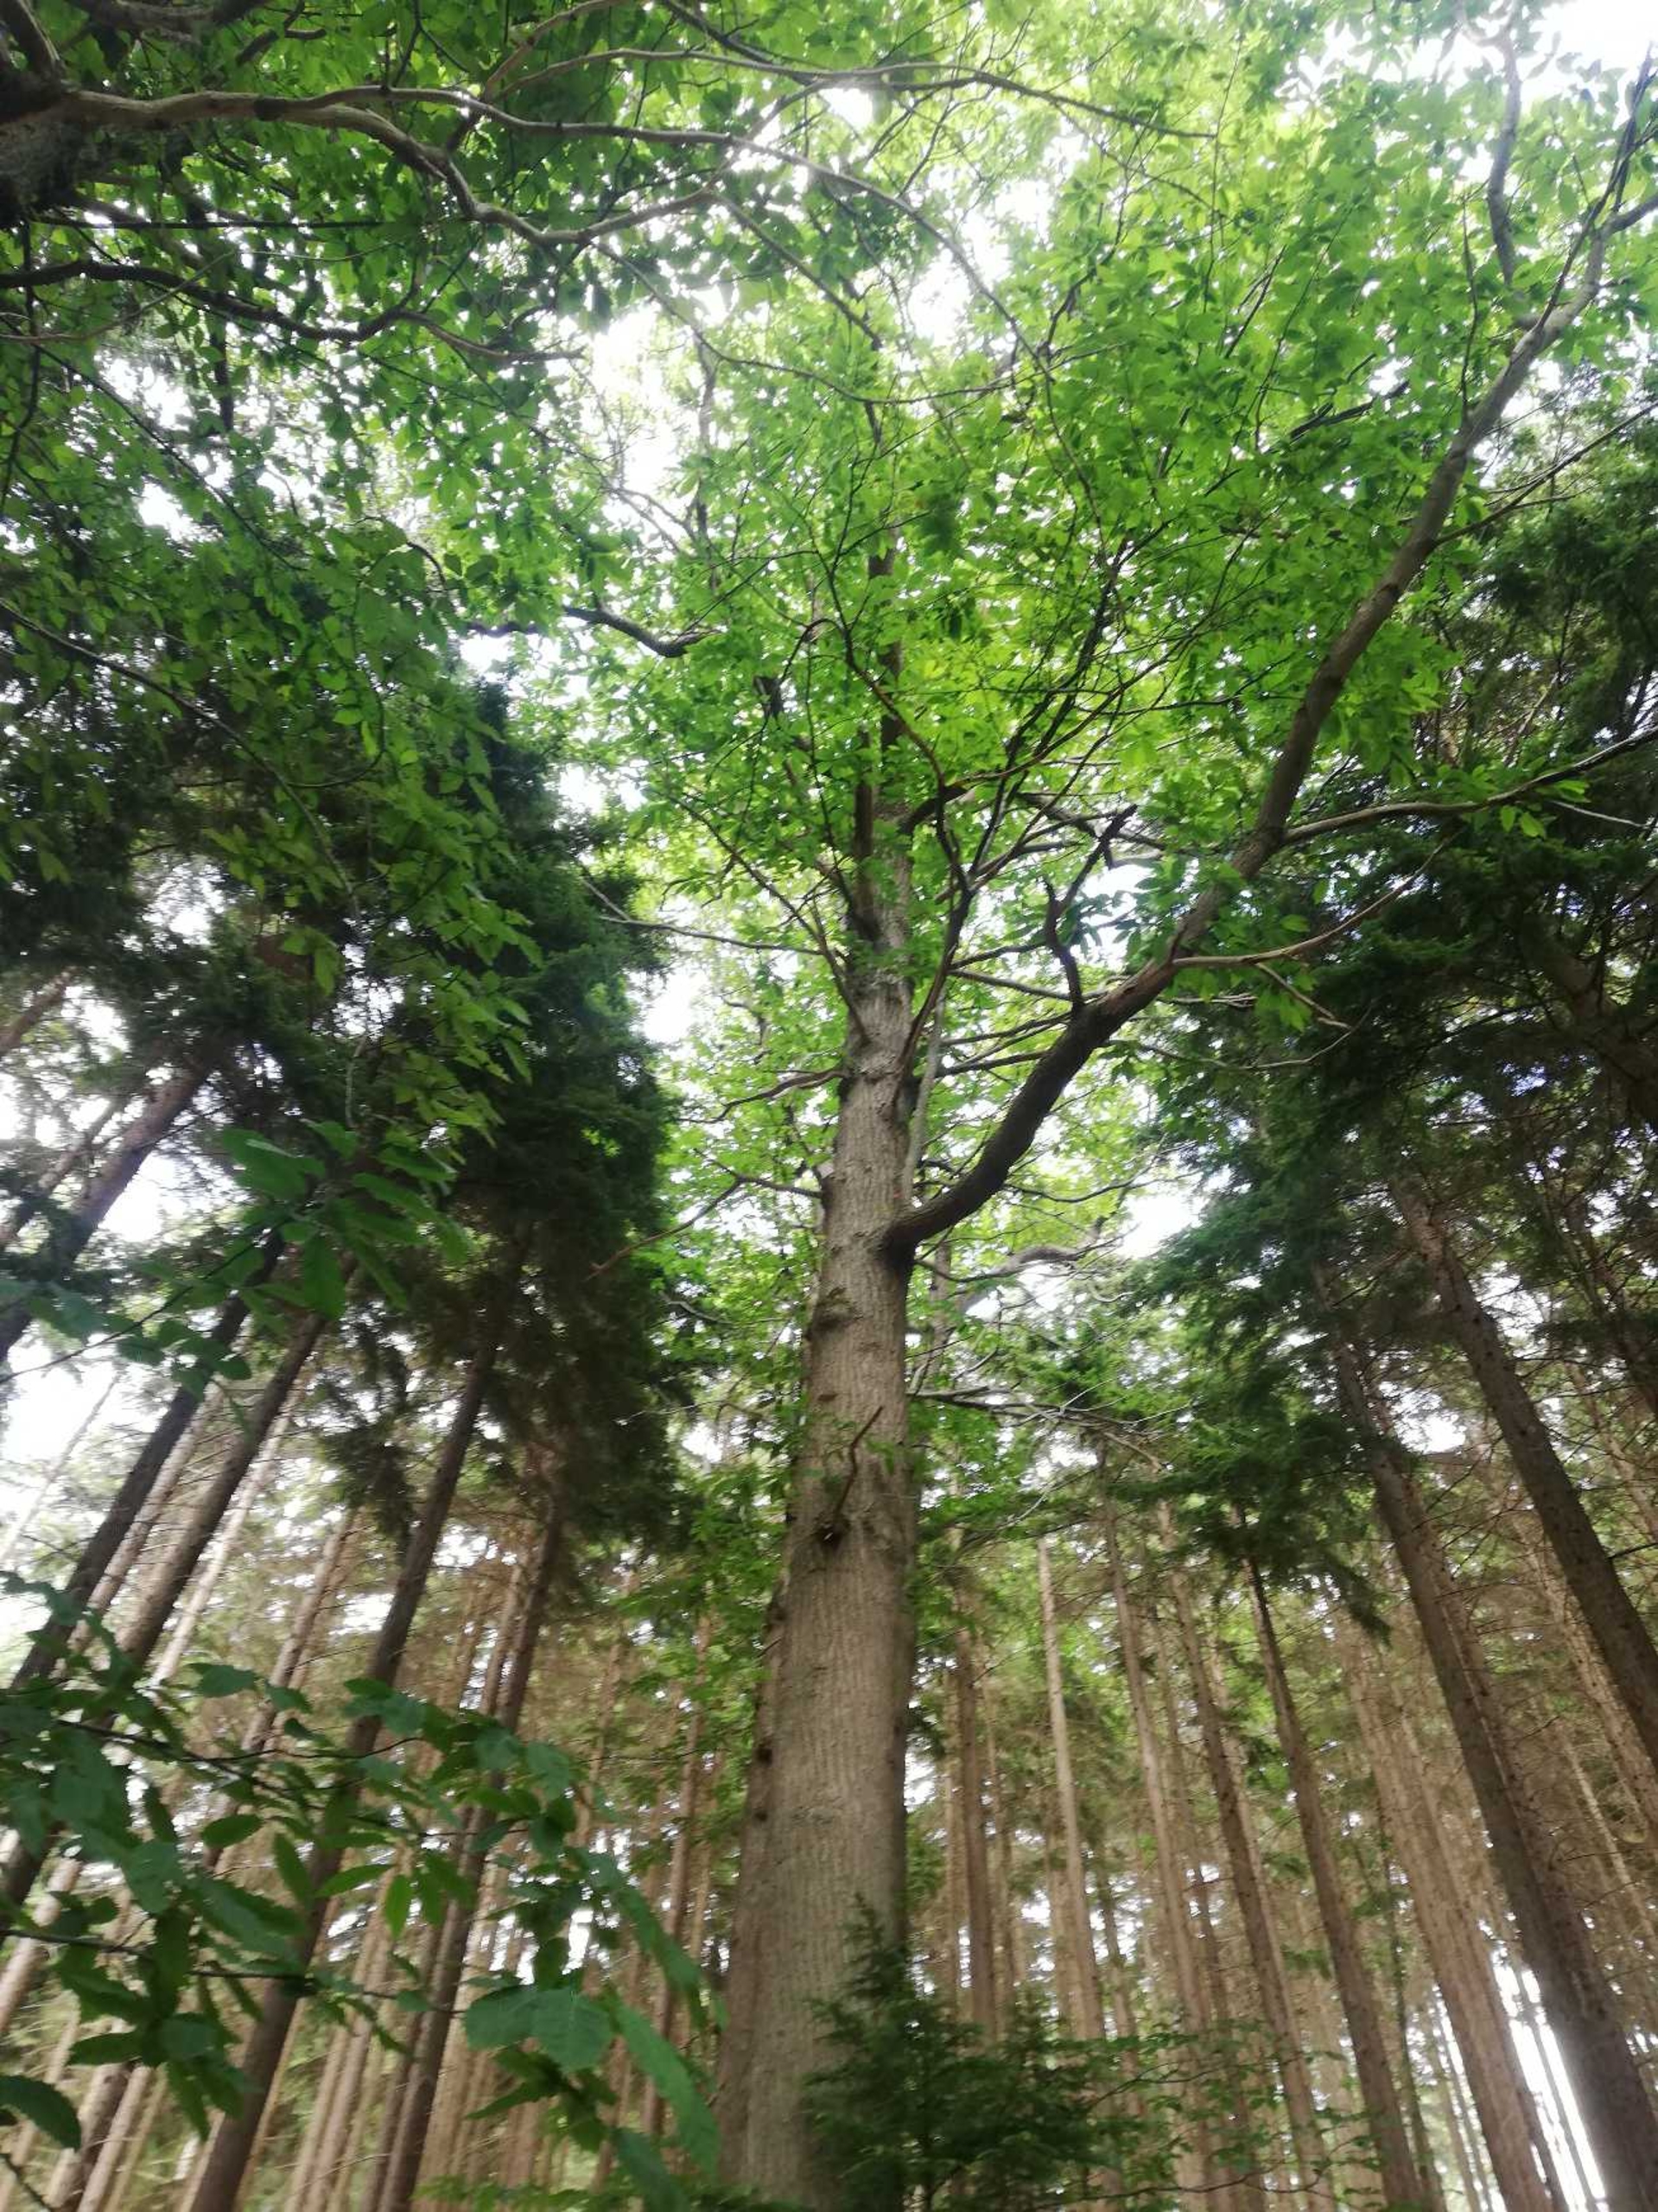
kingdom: Plantae
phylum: Tracheophyta
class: Magnoliopsida
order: Fagales
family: Fagaceae
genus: Castanea
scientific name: Castanea sativa
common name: Ægte kastanie
